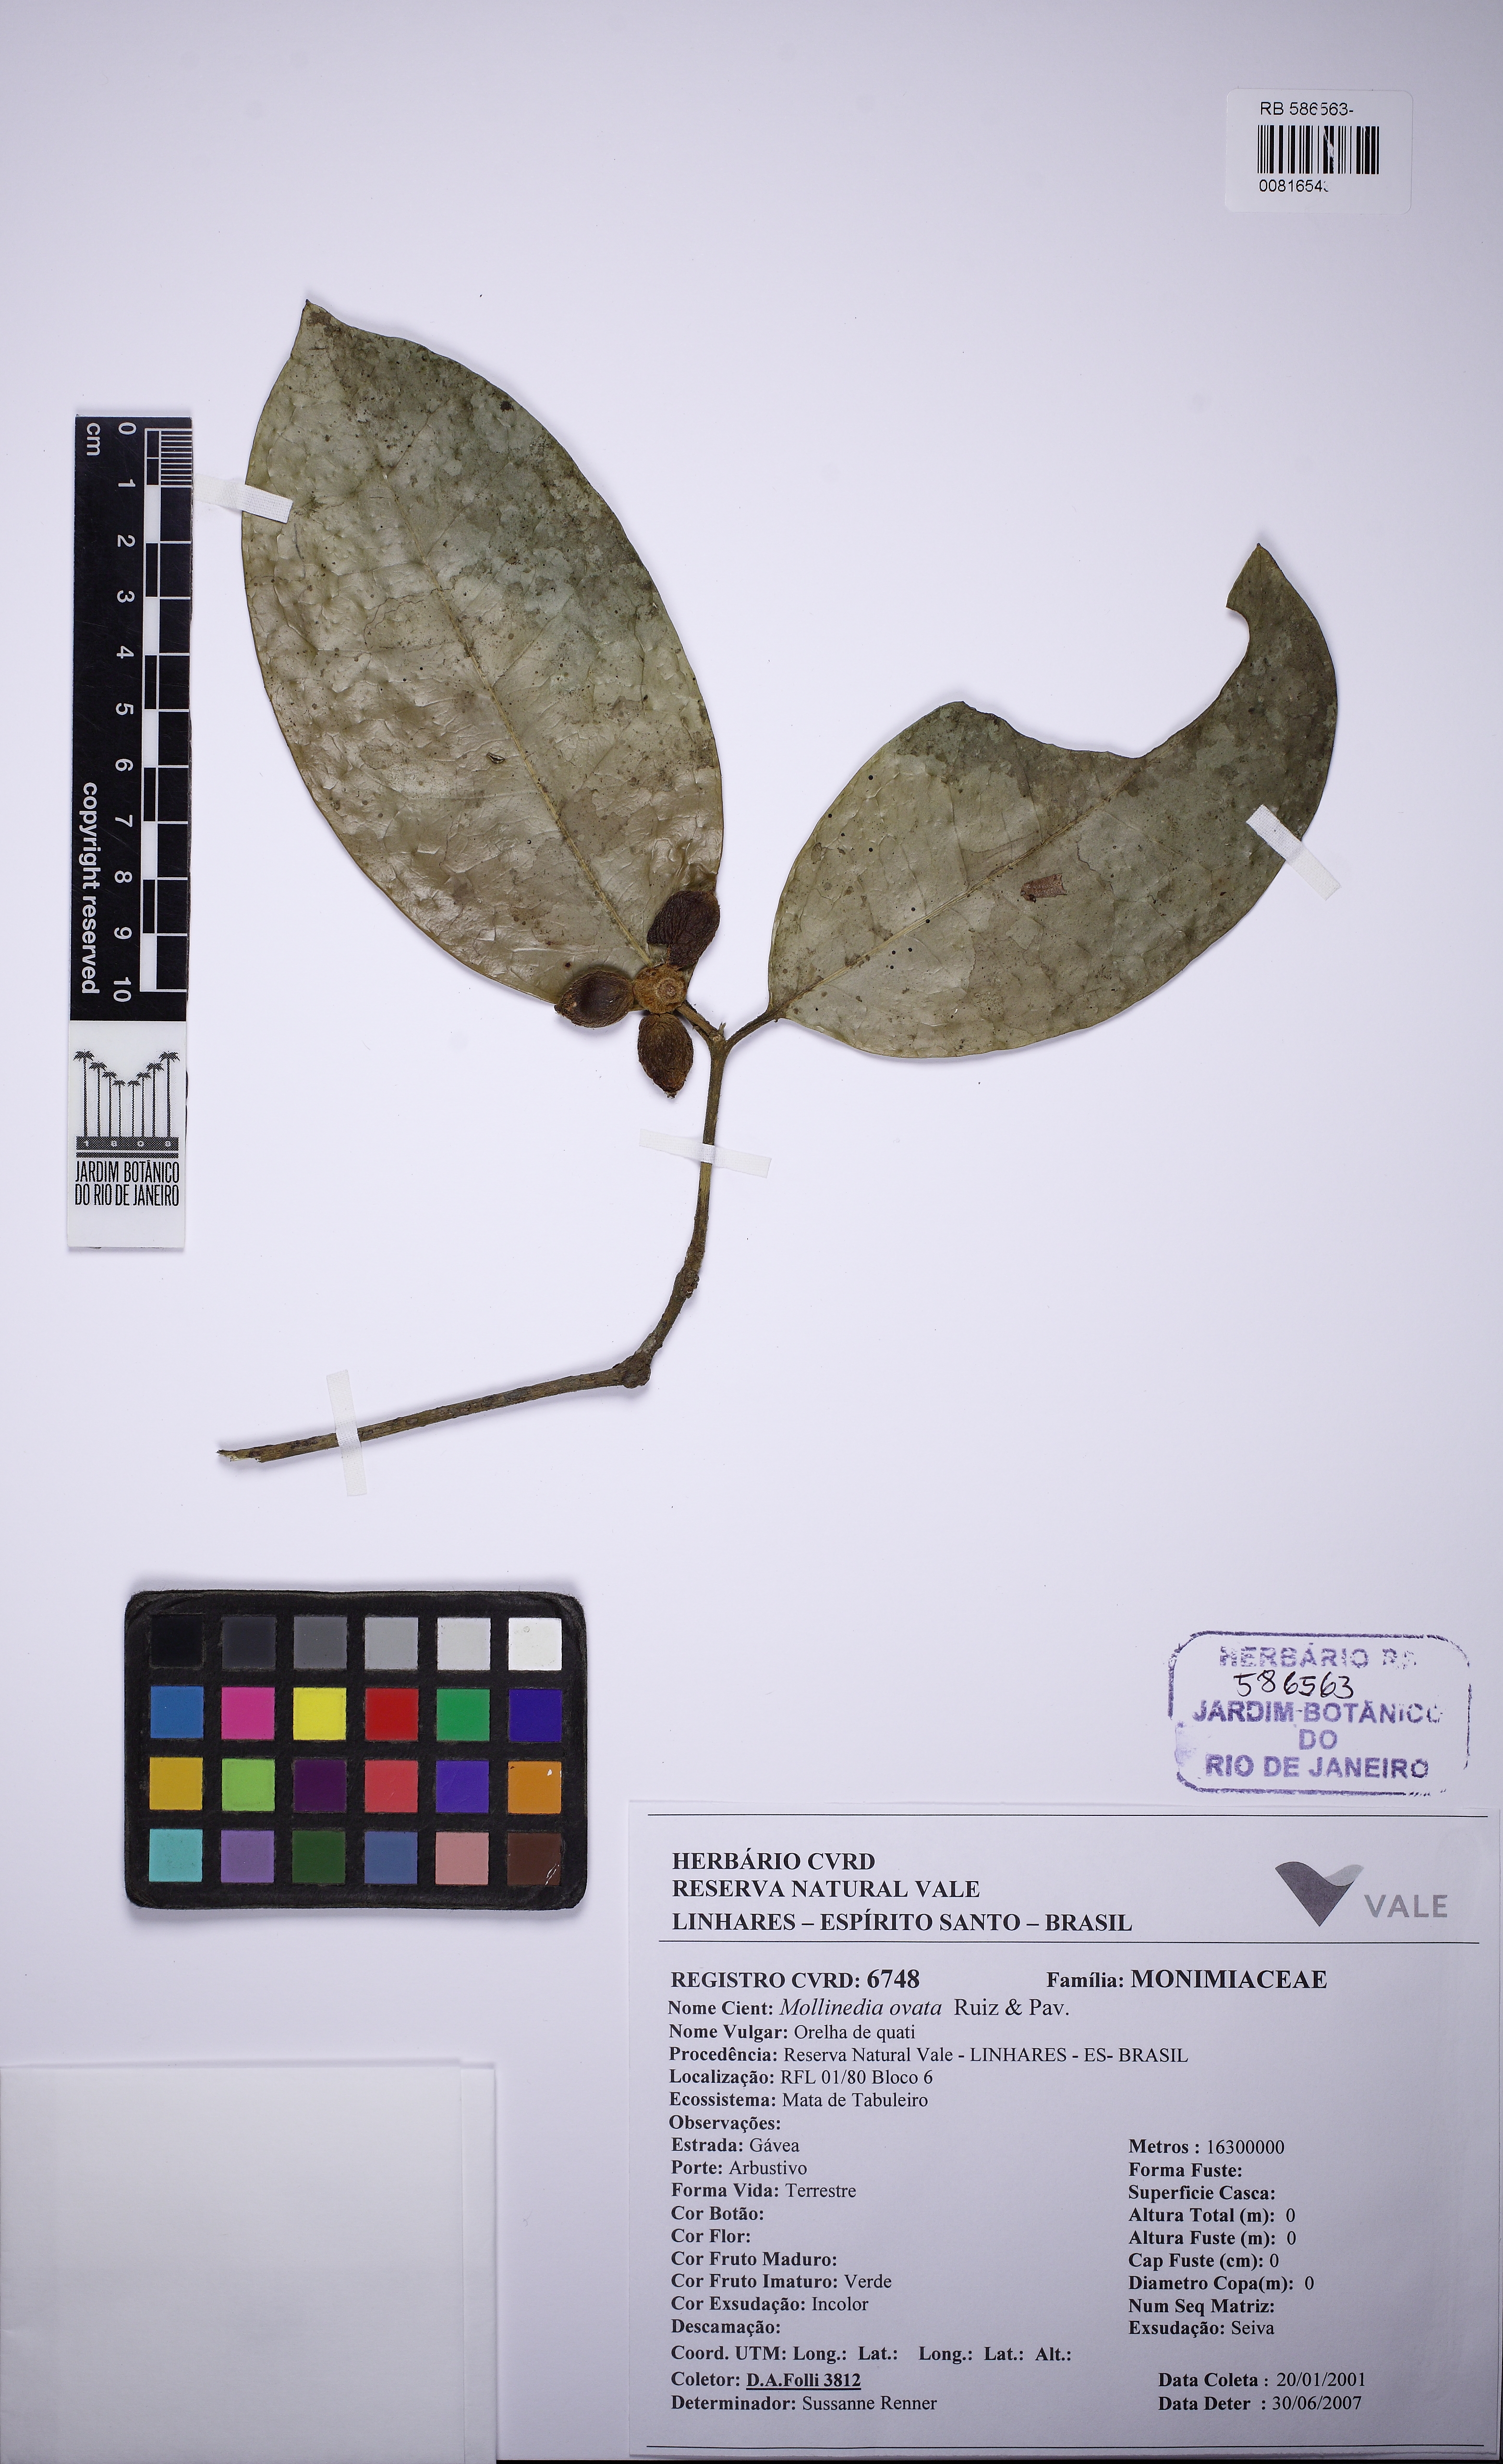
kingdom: Plantae
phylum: Tracheophyta
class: Magnoliopsida
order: Laurales
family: Monimiaceae
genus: Mollinedia
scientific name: Mollinedia glabra
